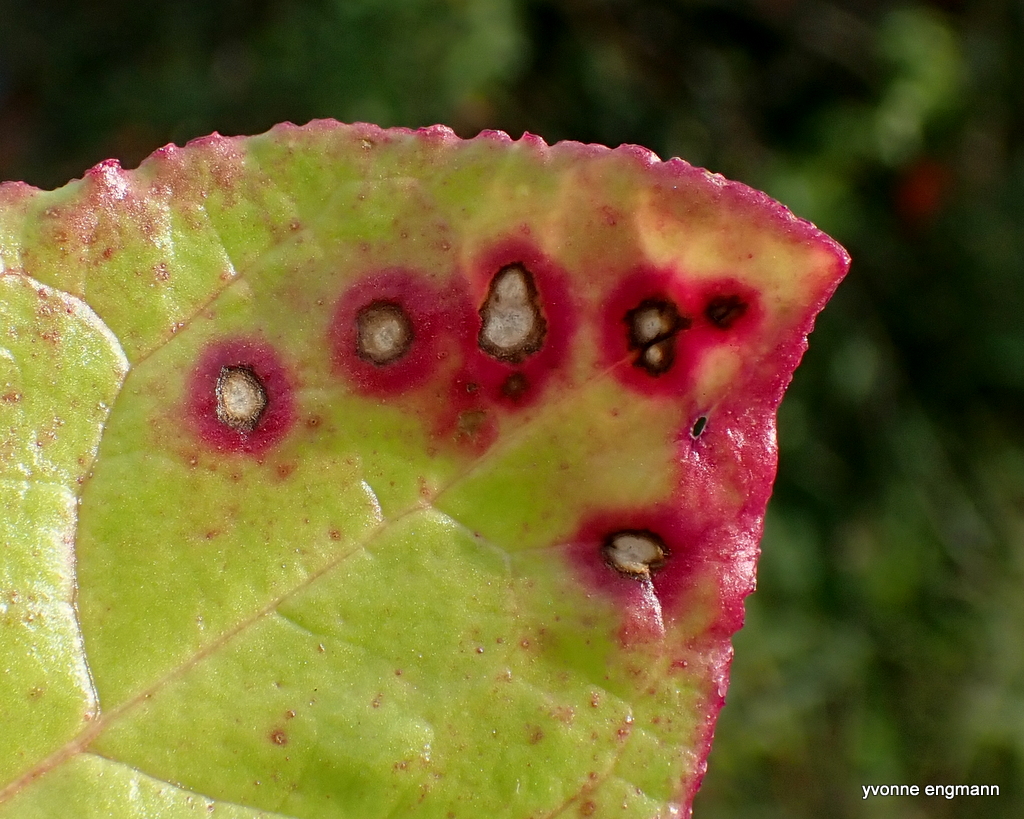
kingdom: Fungi
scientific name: Fungi
